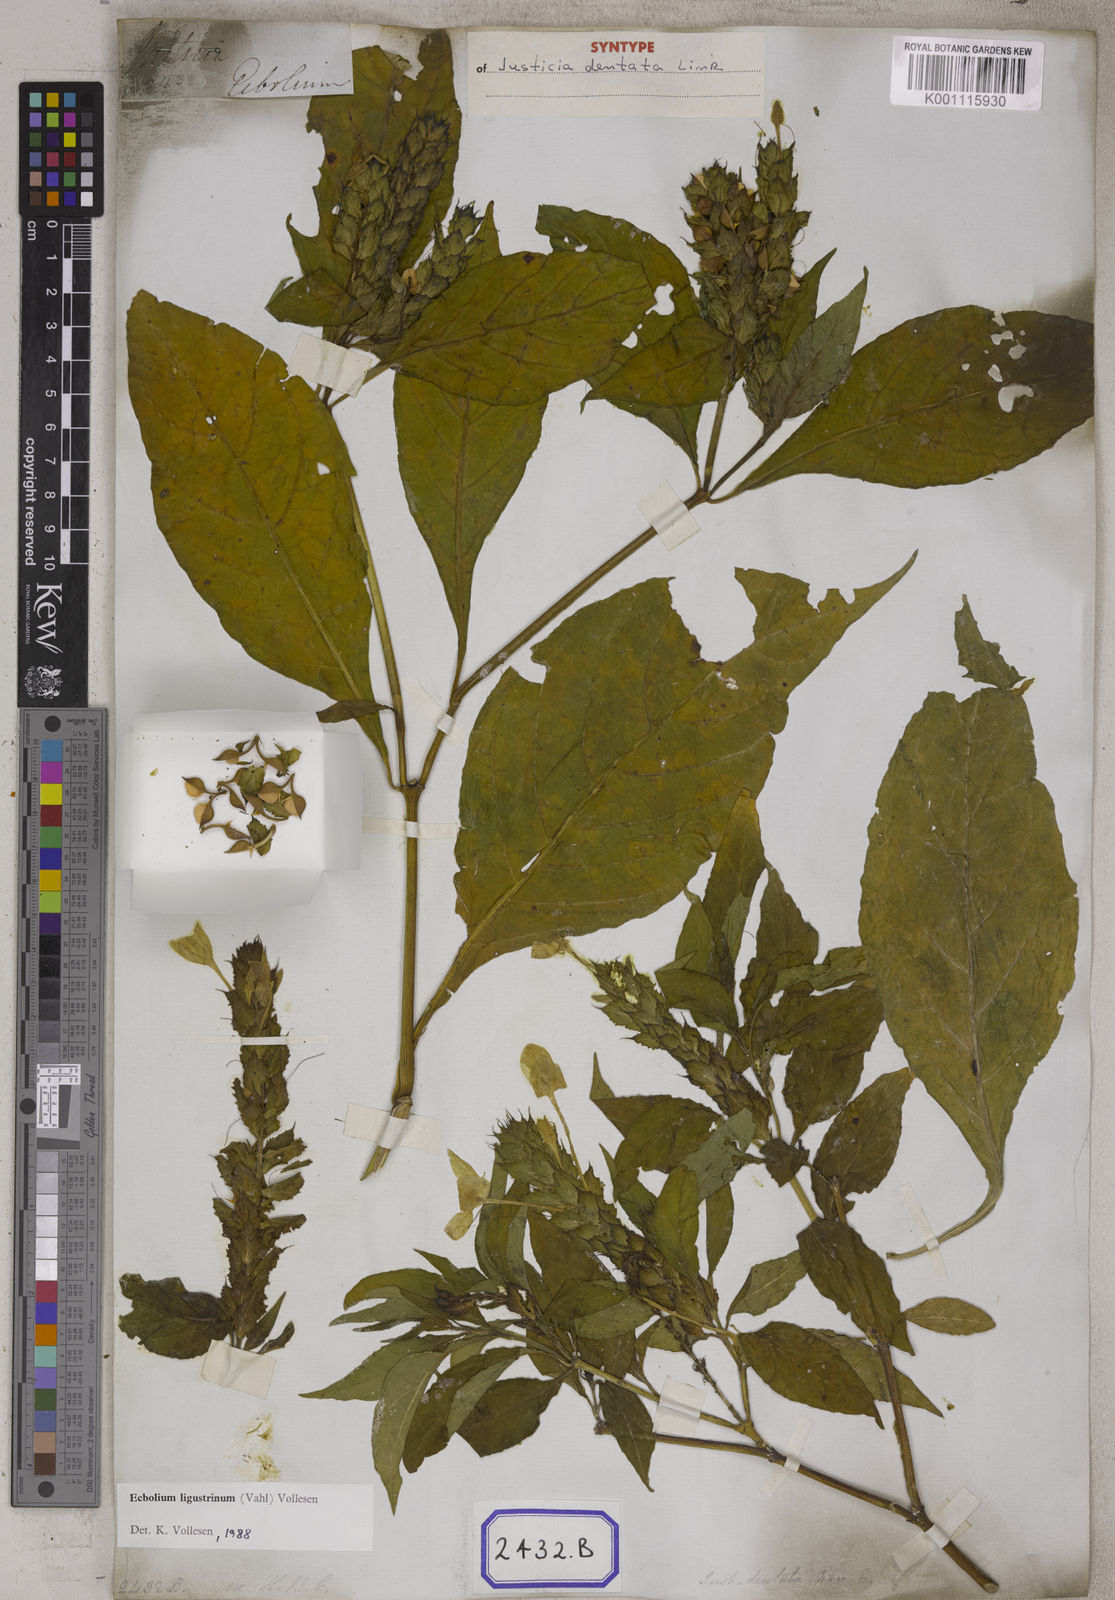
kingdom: Plantae
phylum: Tracheophyta
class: Magnoliopsida
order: Lamiales
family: Acanthaceae
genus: Ecbolium
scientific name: Ecbolium ligustrinum
